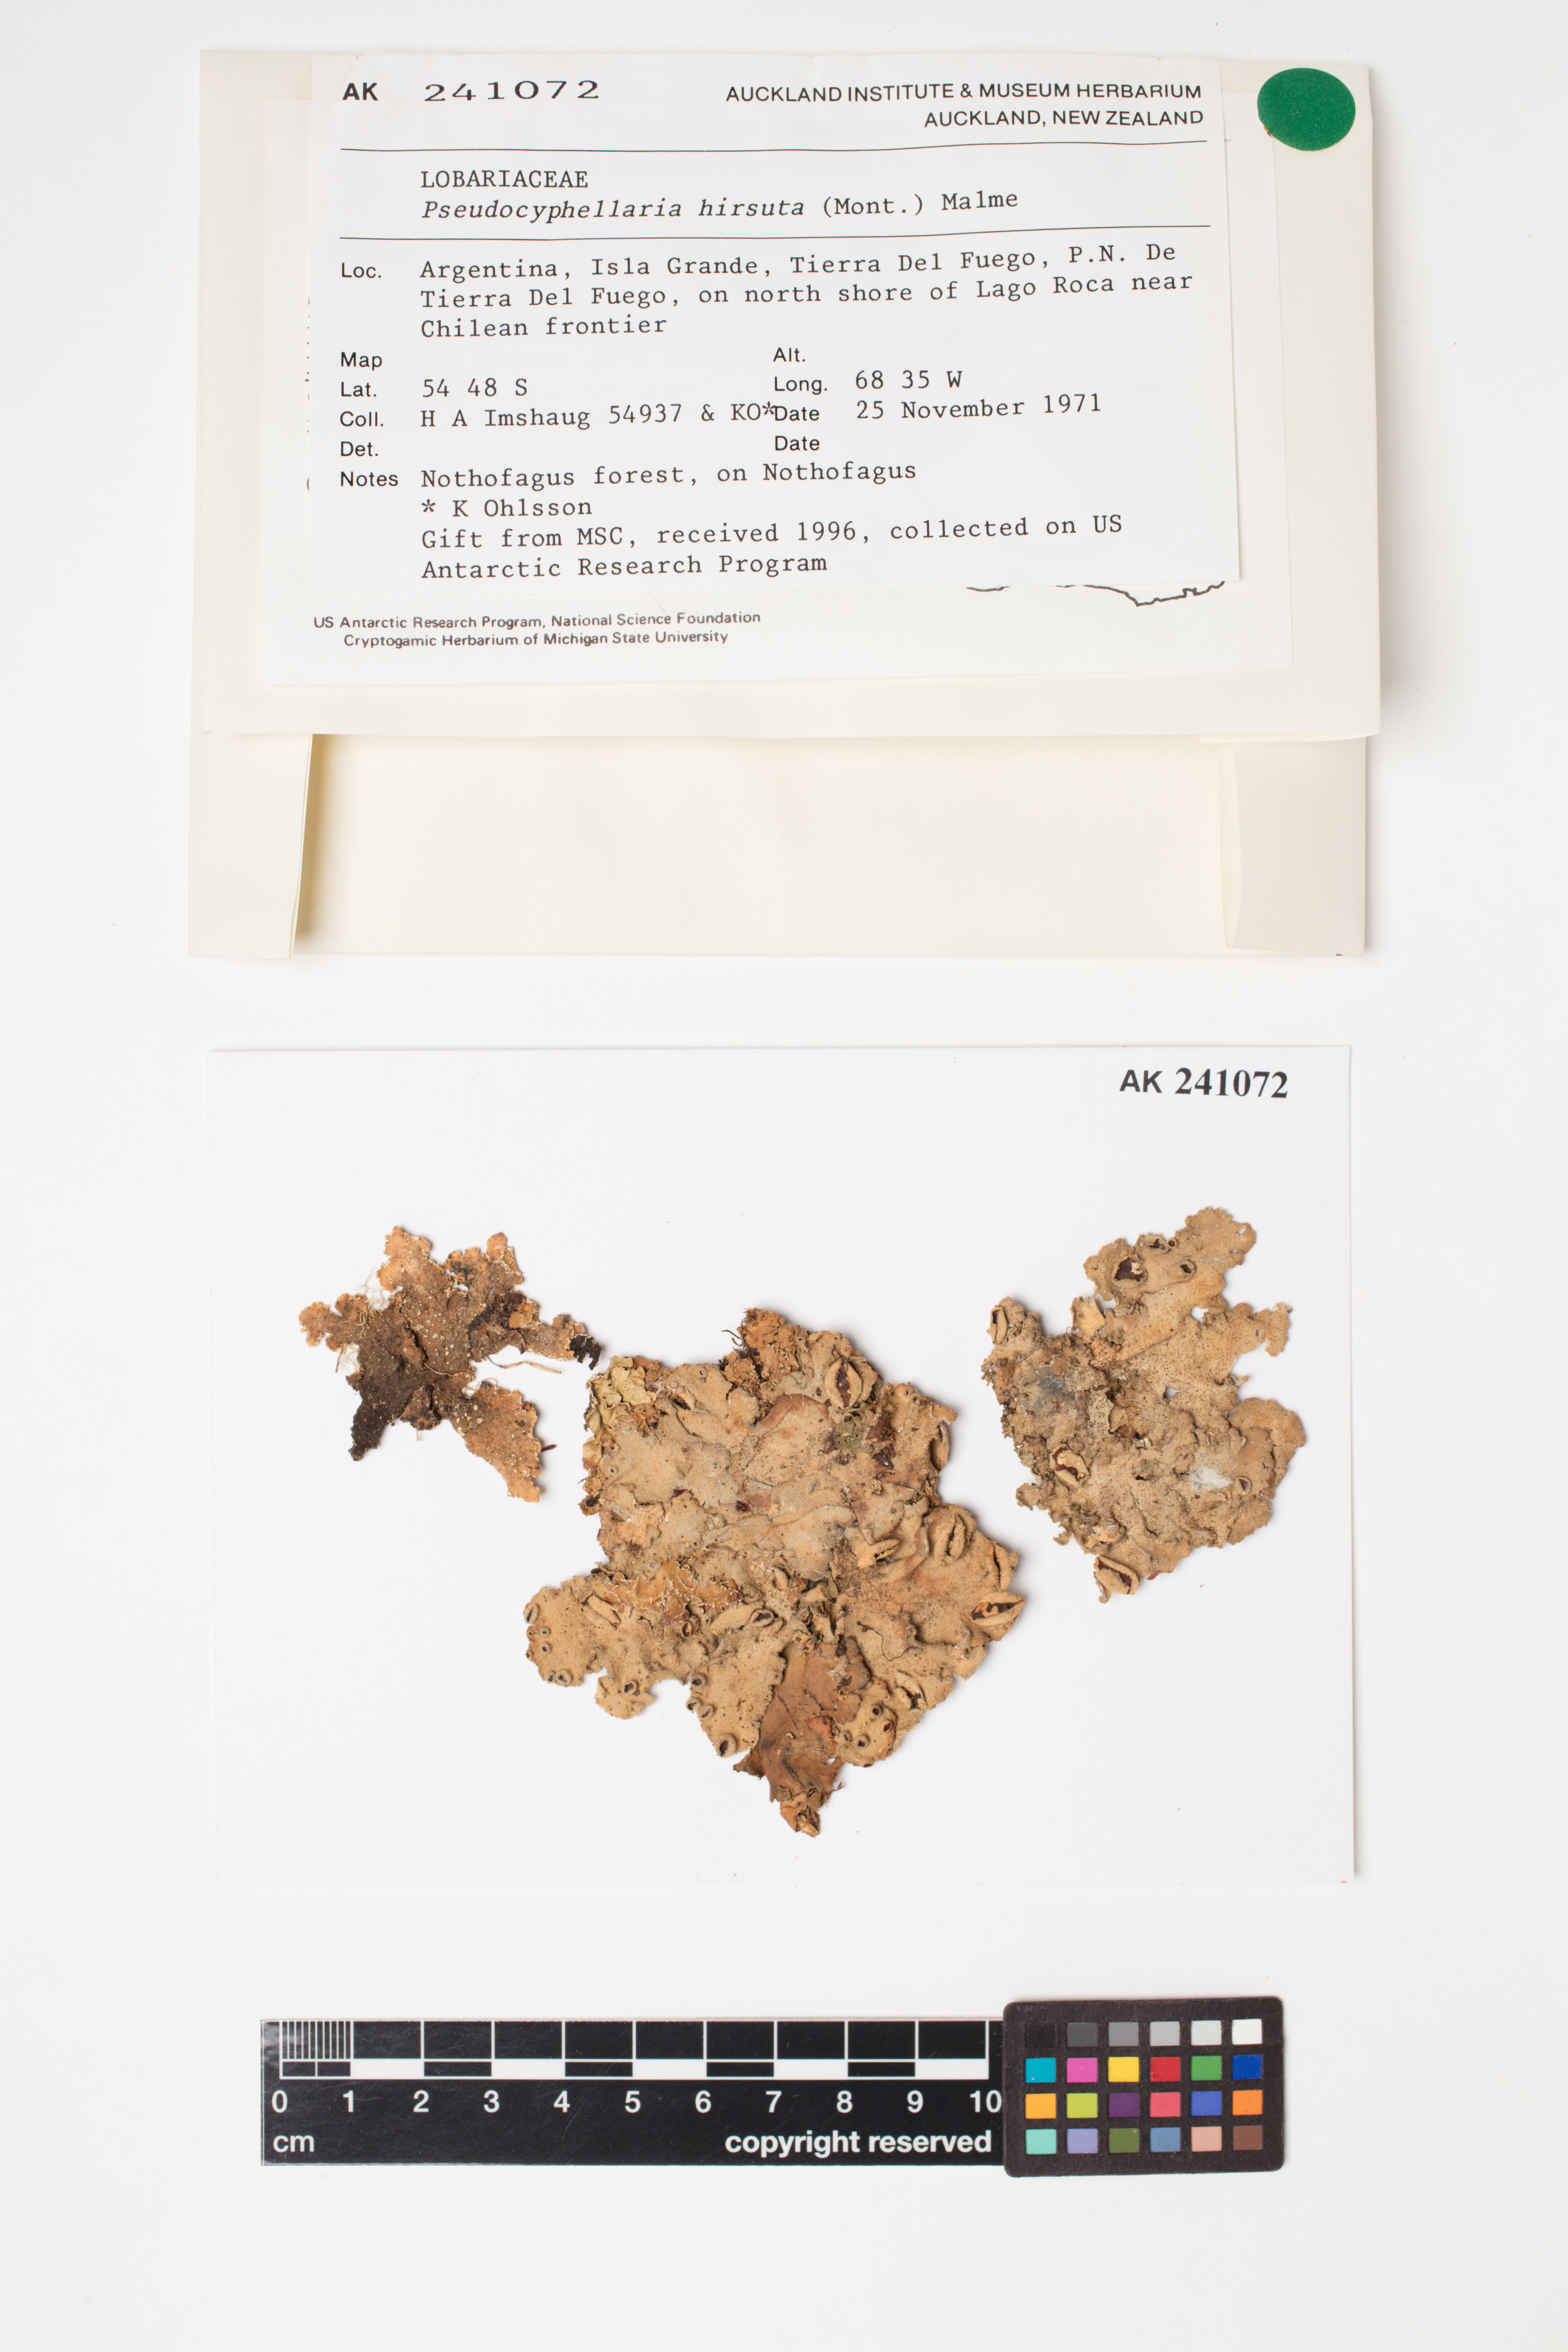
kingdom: Fungi
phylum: Ascomycota
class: Lecanoromycetes
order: Peltigerales
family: Lobariaceae
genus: Pseudocyphellaria
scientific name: Pseudocyphellaria hirsuta
